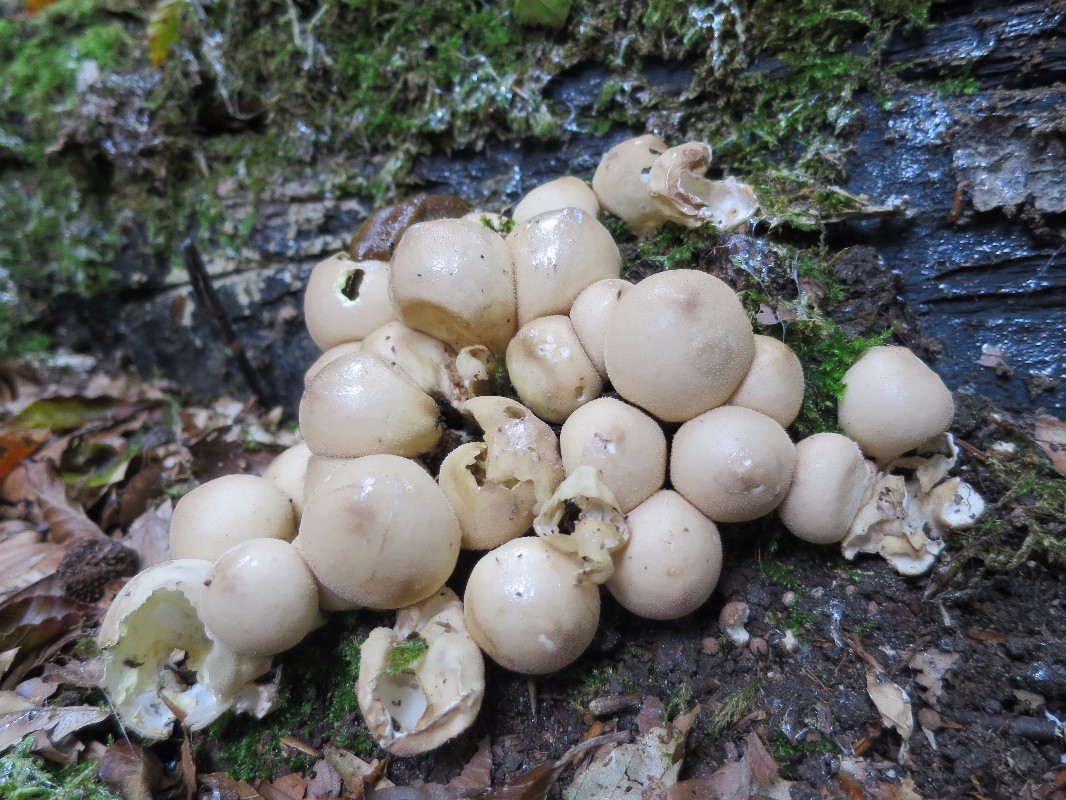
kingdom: Fungi
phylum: Basidiomycota
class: Agaricomycetes
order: Agaricales
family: Lycoperdaceae
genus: Apioperdon
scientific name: Apioperdon pyriforme
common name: pære-støvbold
